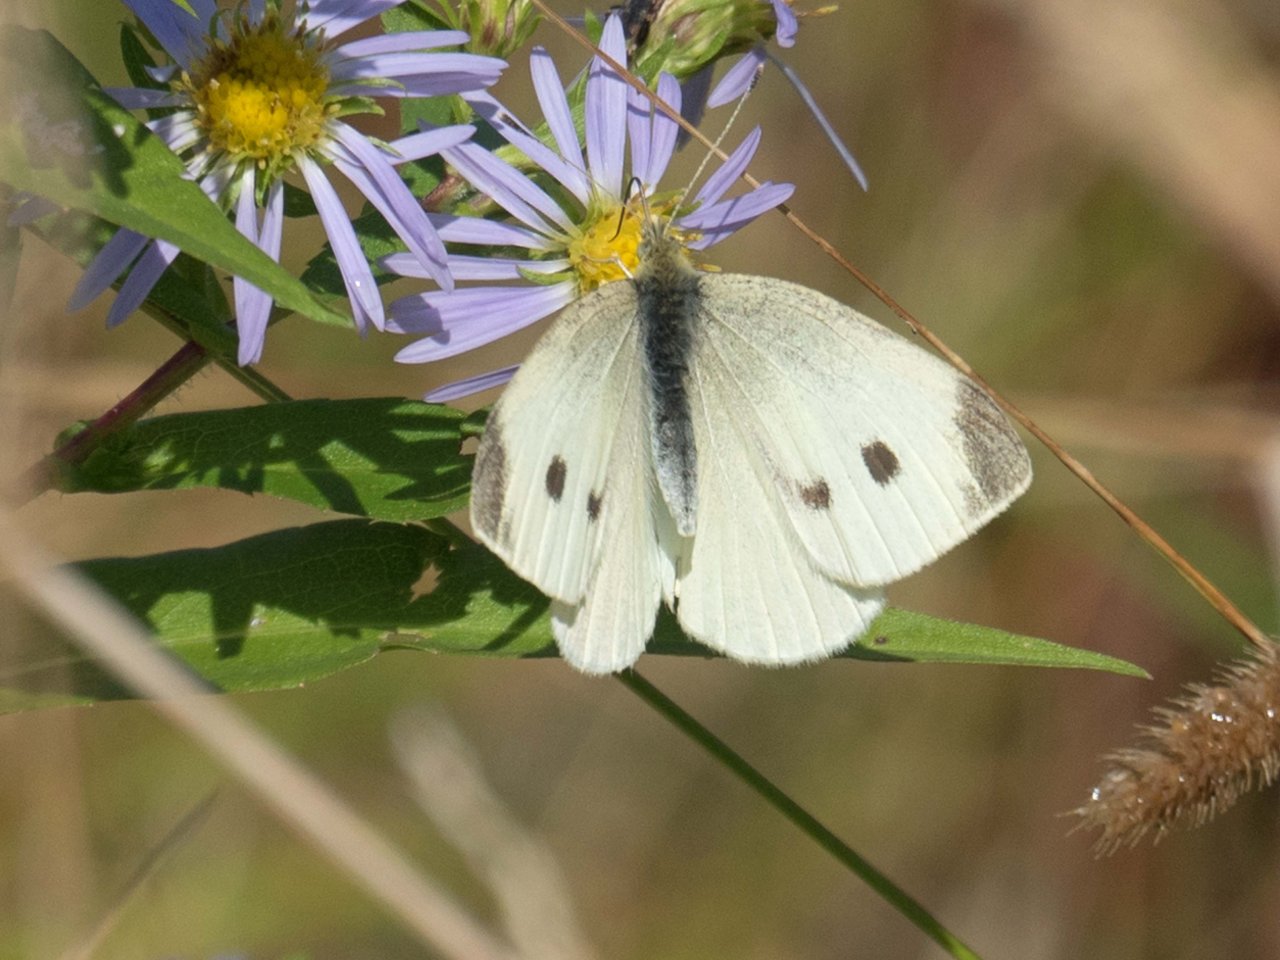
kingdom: Animalia
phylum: Arthropoda
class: Insecta
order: Lepidoptera
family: Pieridae
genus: Pieris
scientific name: Pieris rapae
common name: Cabbage White
